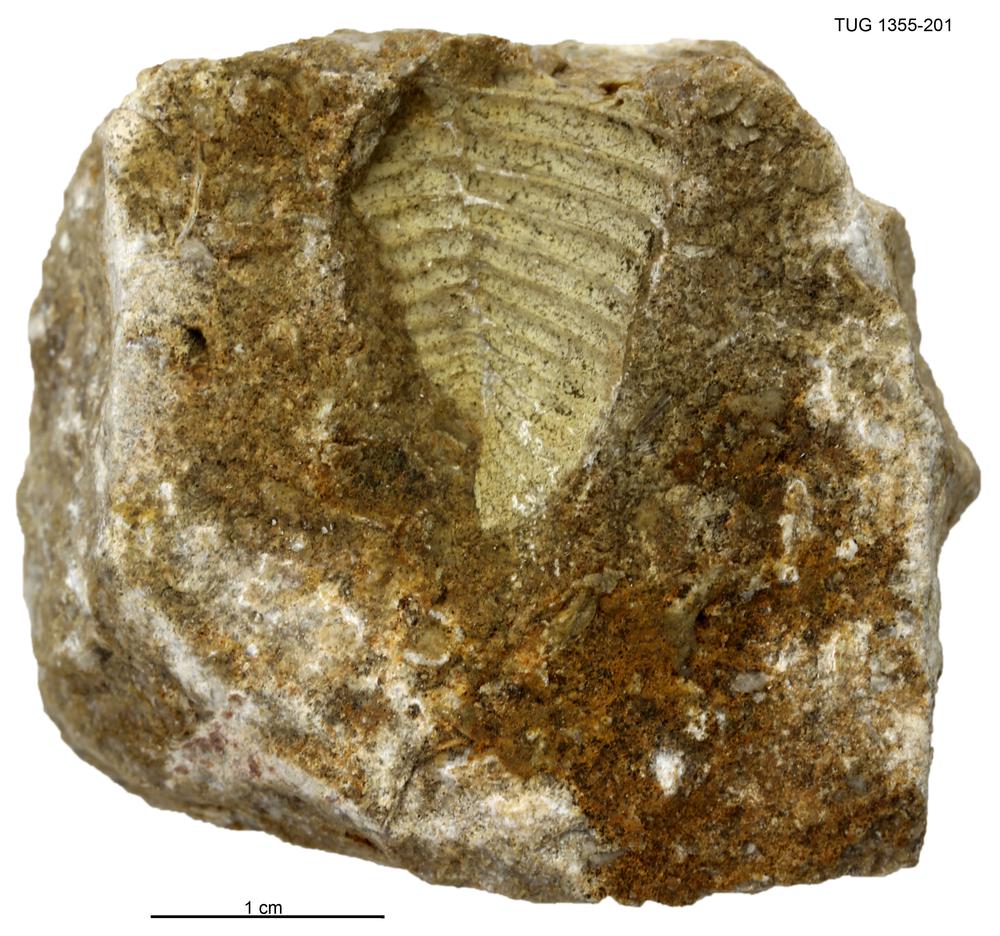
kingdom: Animalia
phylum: Arthropoda
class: Trilobita
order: Phacopida
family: Pterygometopidae
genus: Chasmops
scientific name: Chasmops macrourus
